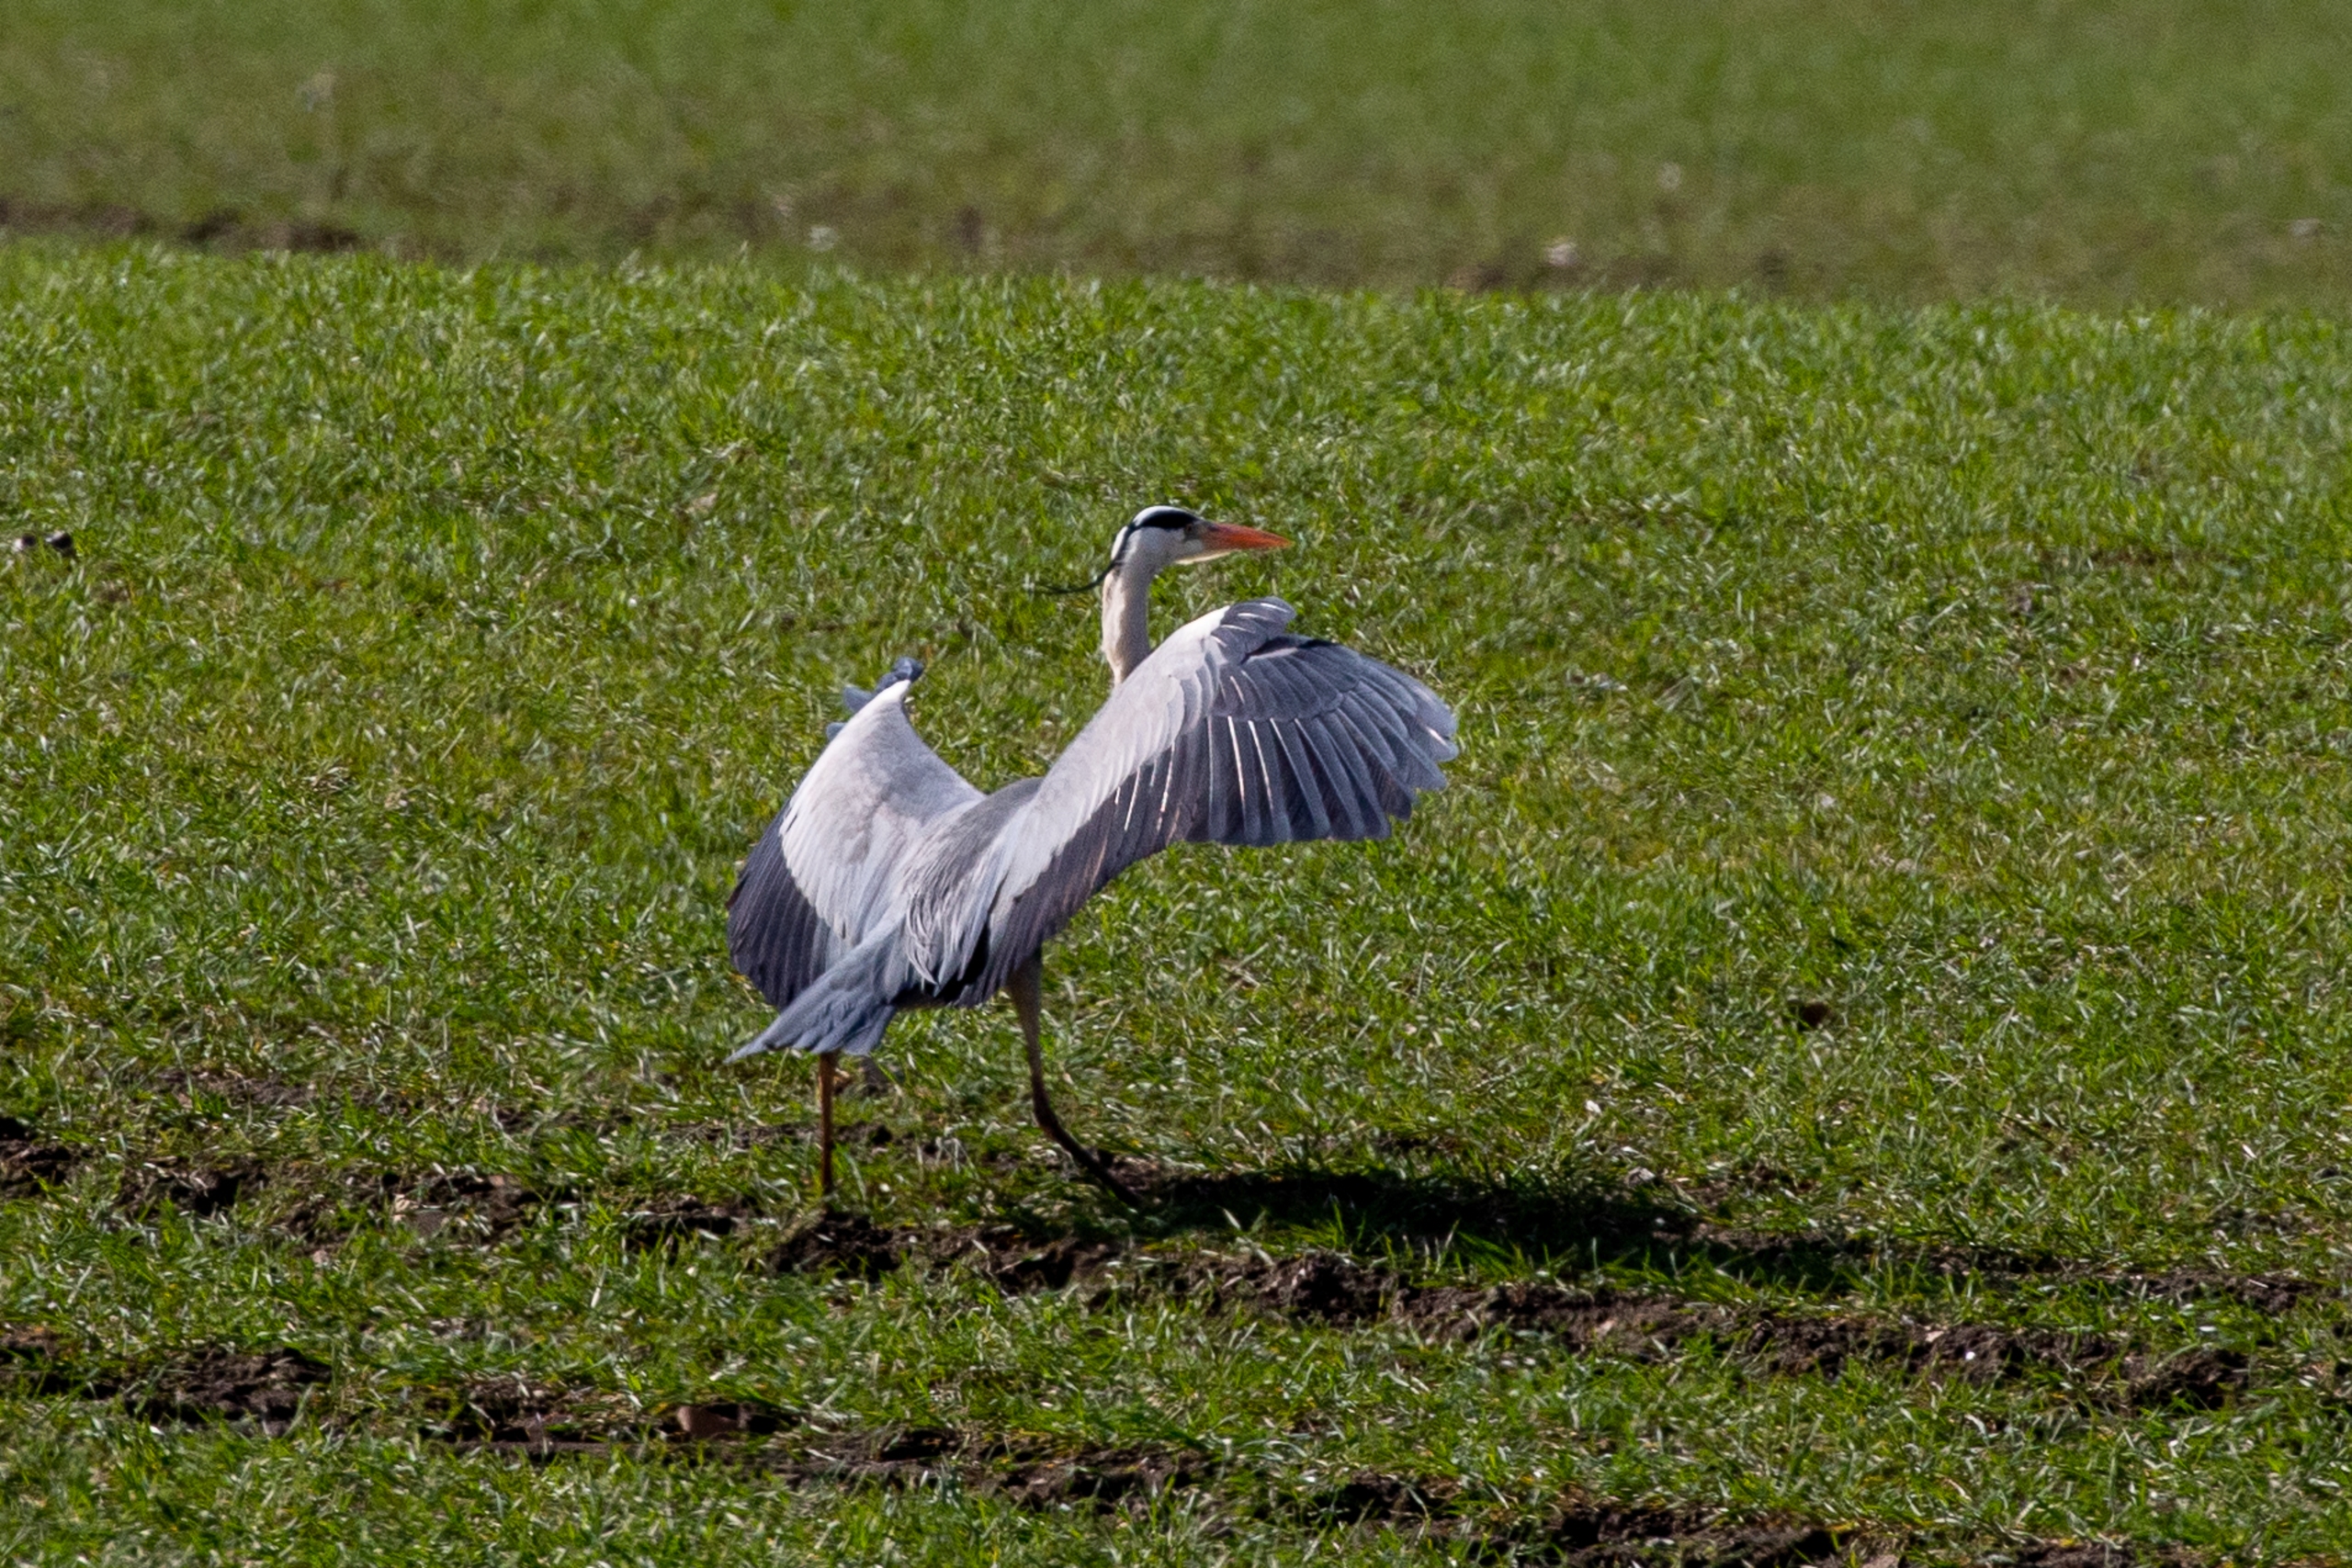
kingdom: Animalia
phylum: Chordata
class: Aves
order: Pelecaniformes
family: Ardeidae
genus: Ardea
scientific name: Ardea cinerea
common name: Fiskehejre
